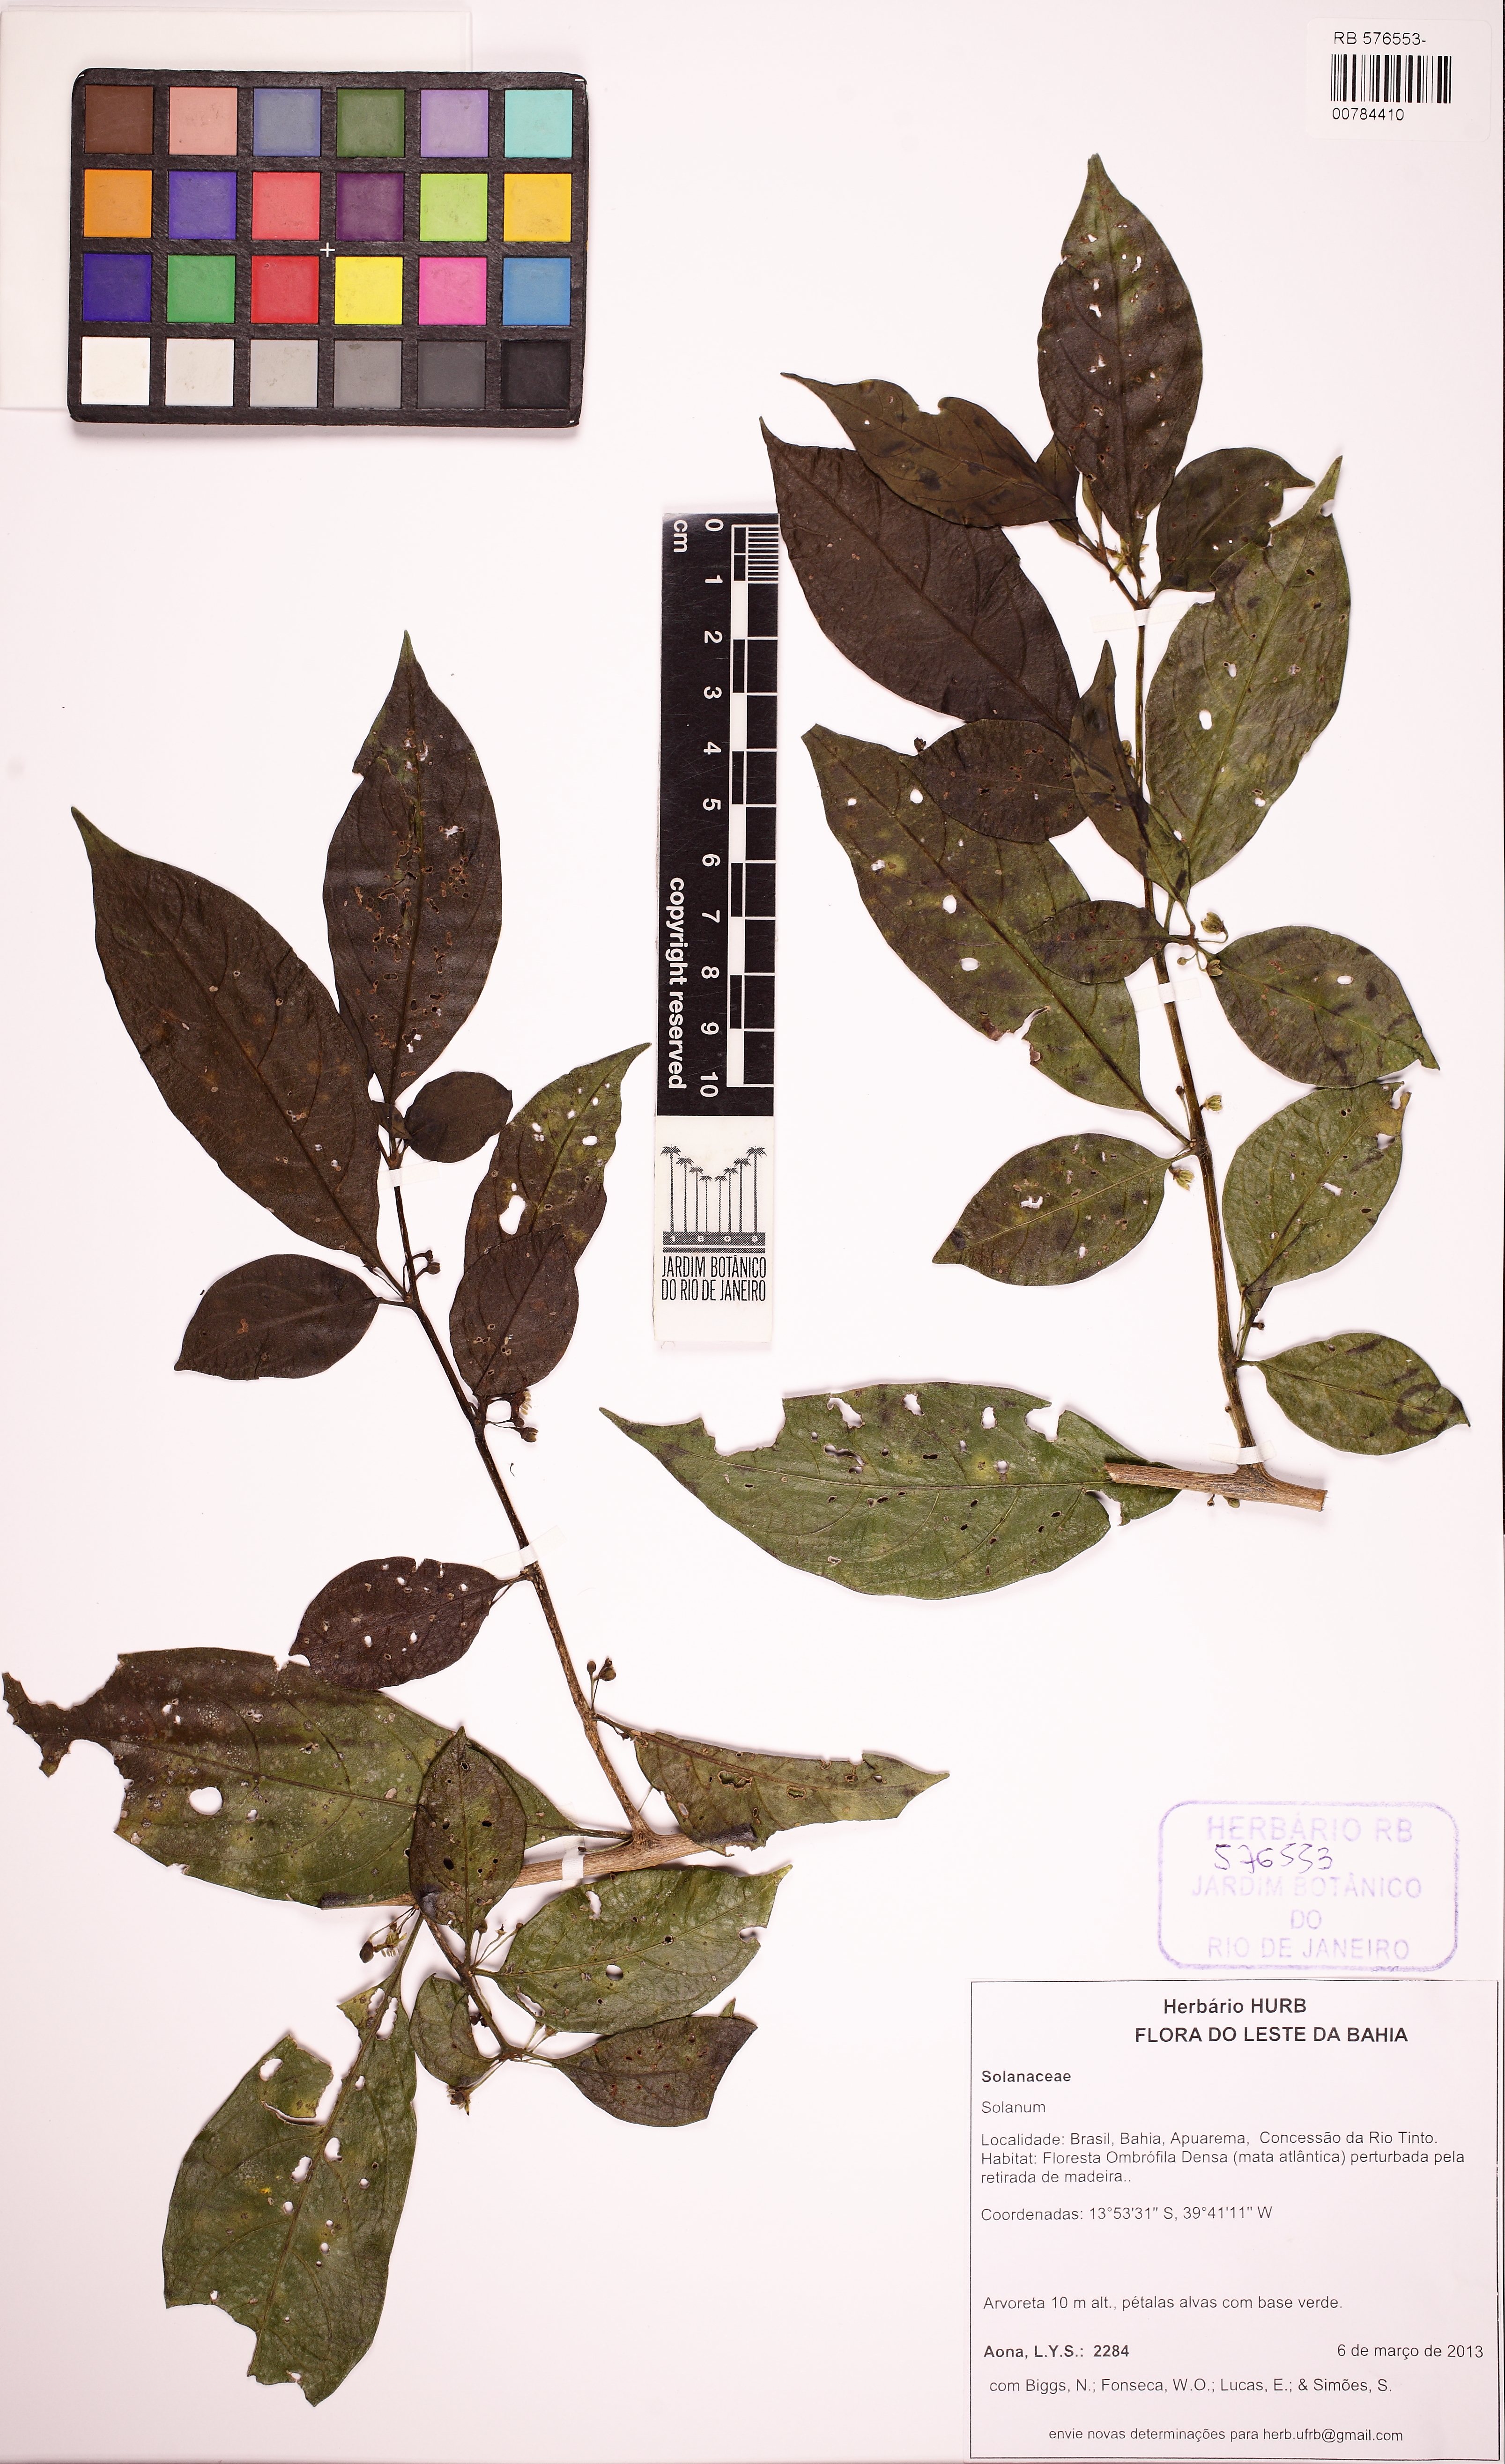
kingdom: Plantae
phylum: Tracheophyta
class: Magnoliopsida
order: Solanales
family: Solanaceae
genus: Athenaea
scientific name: Athenaea fasciculata
